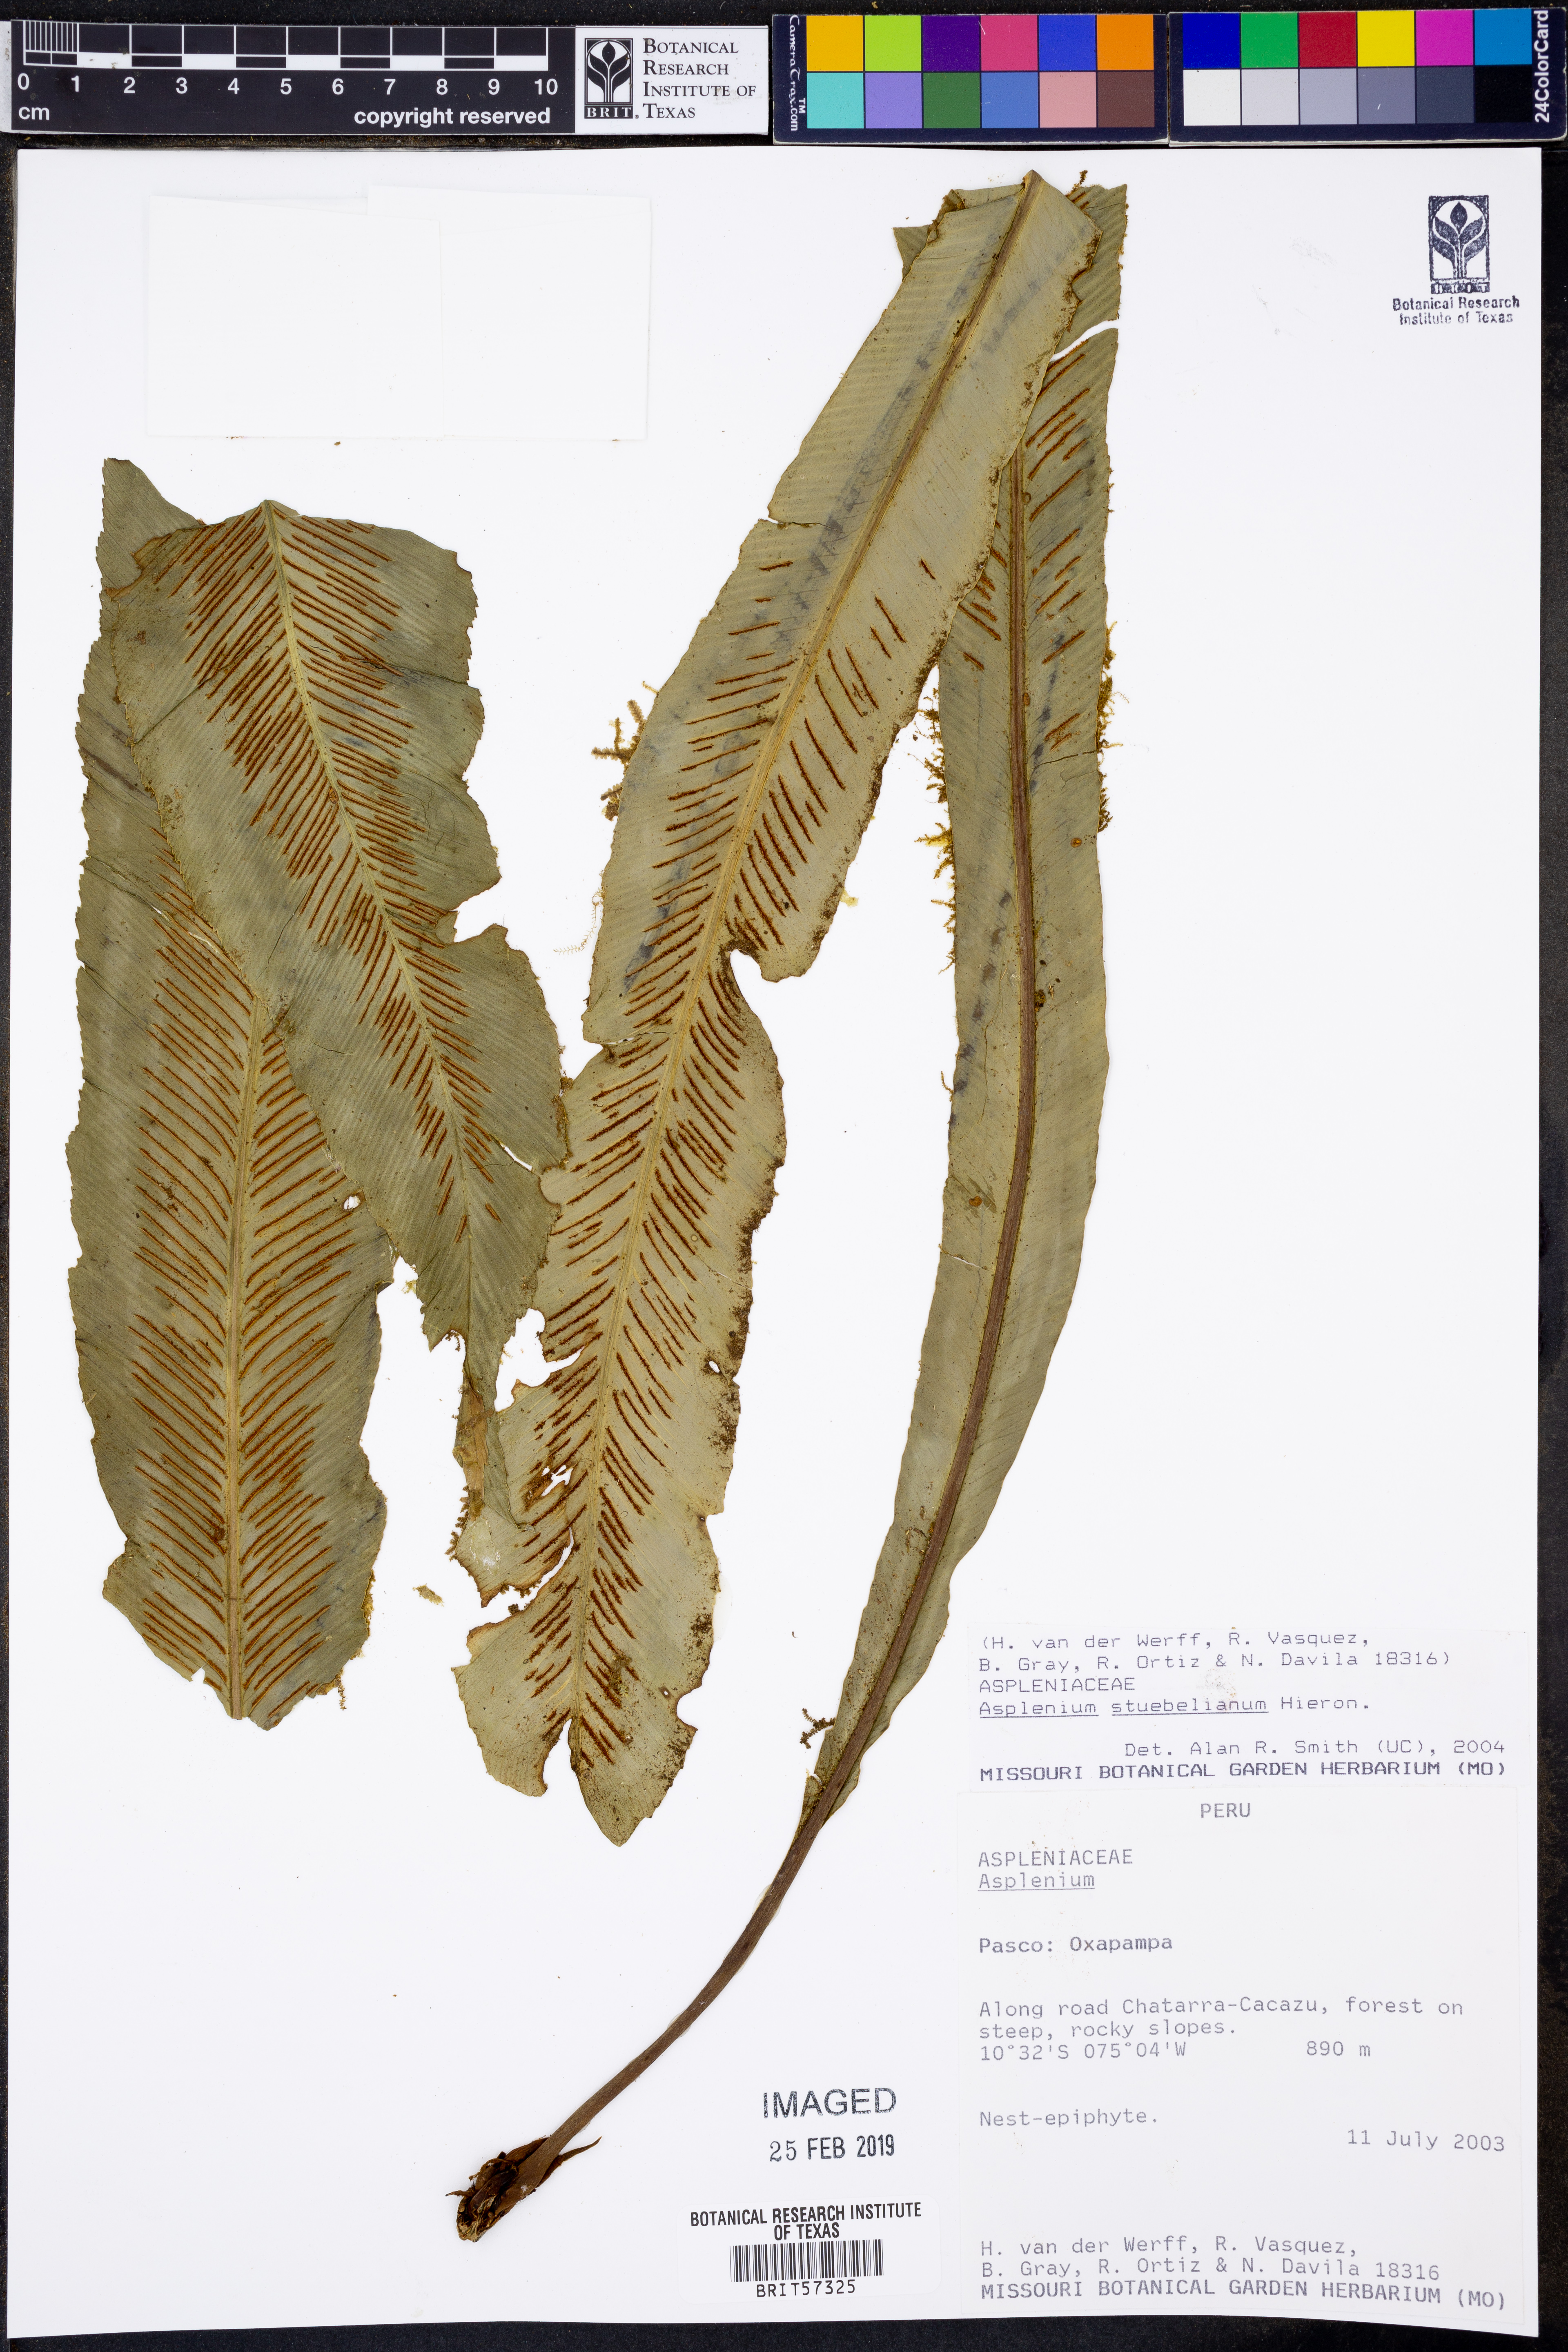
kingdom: Plantae
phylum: Tracheophyta
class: Polypodiopsida
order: Polypodiales
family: Aspleniaceae
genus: Asplenium
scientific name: Asplenium
